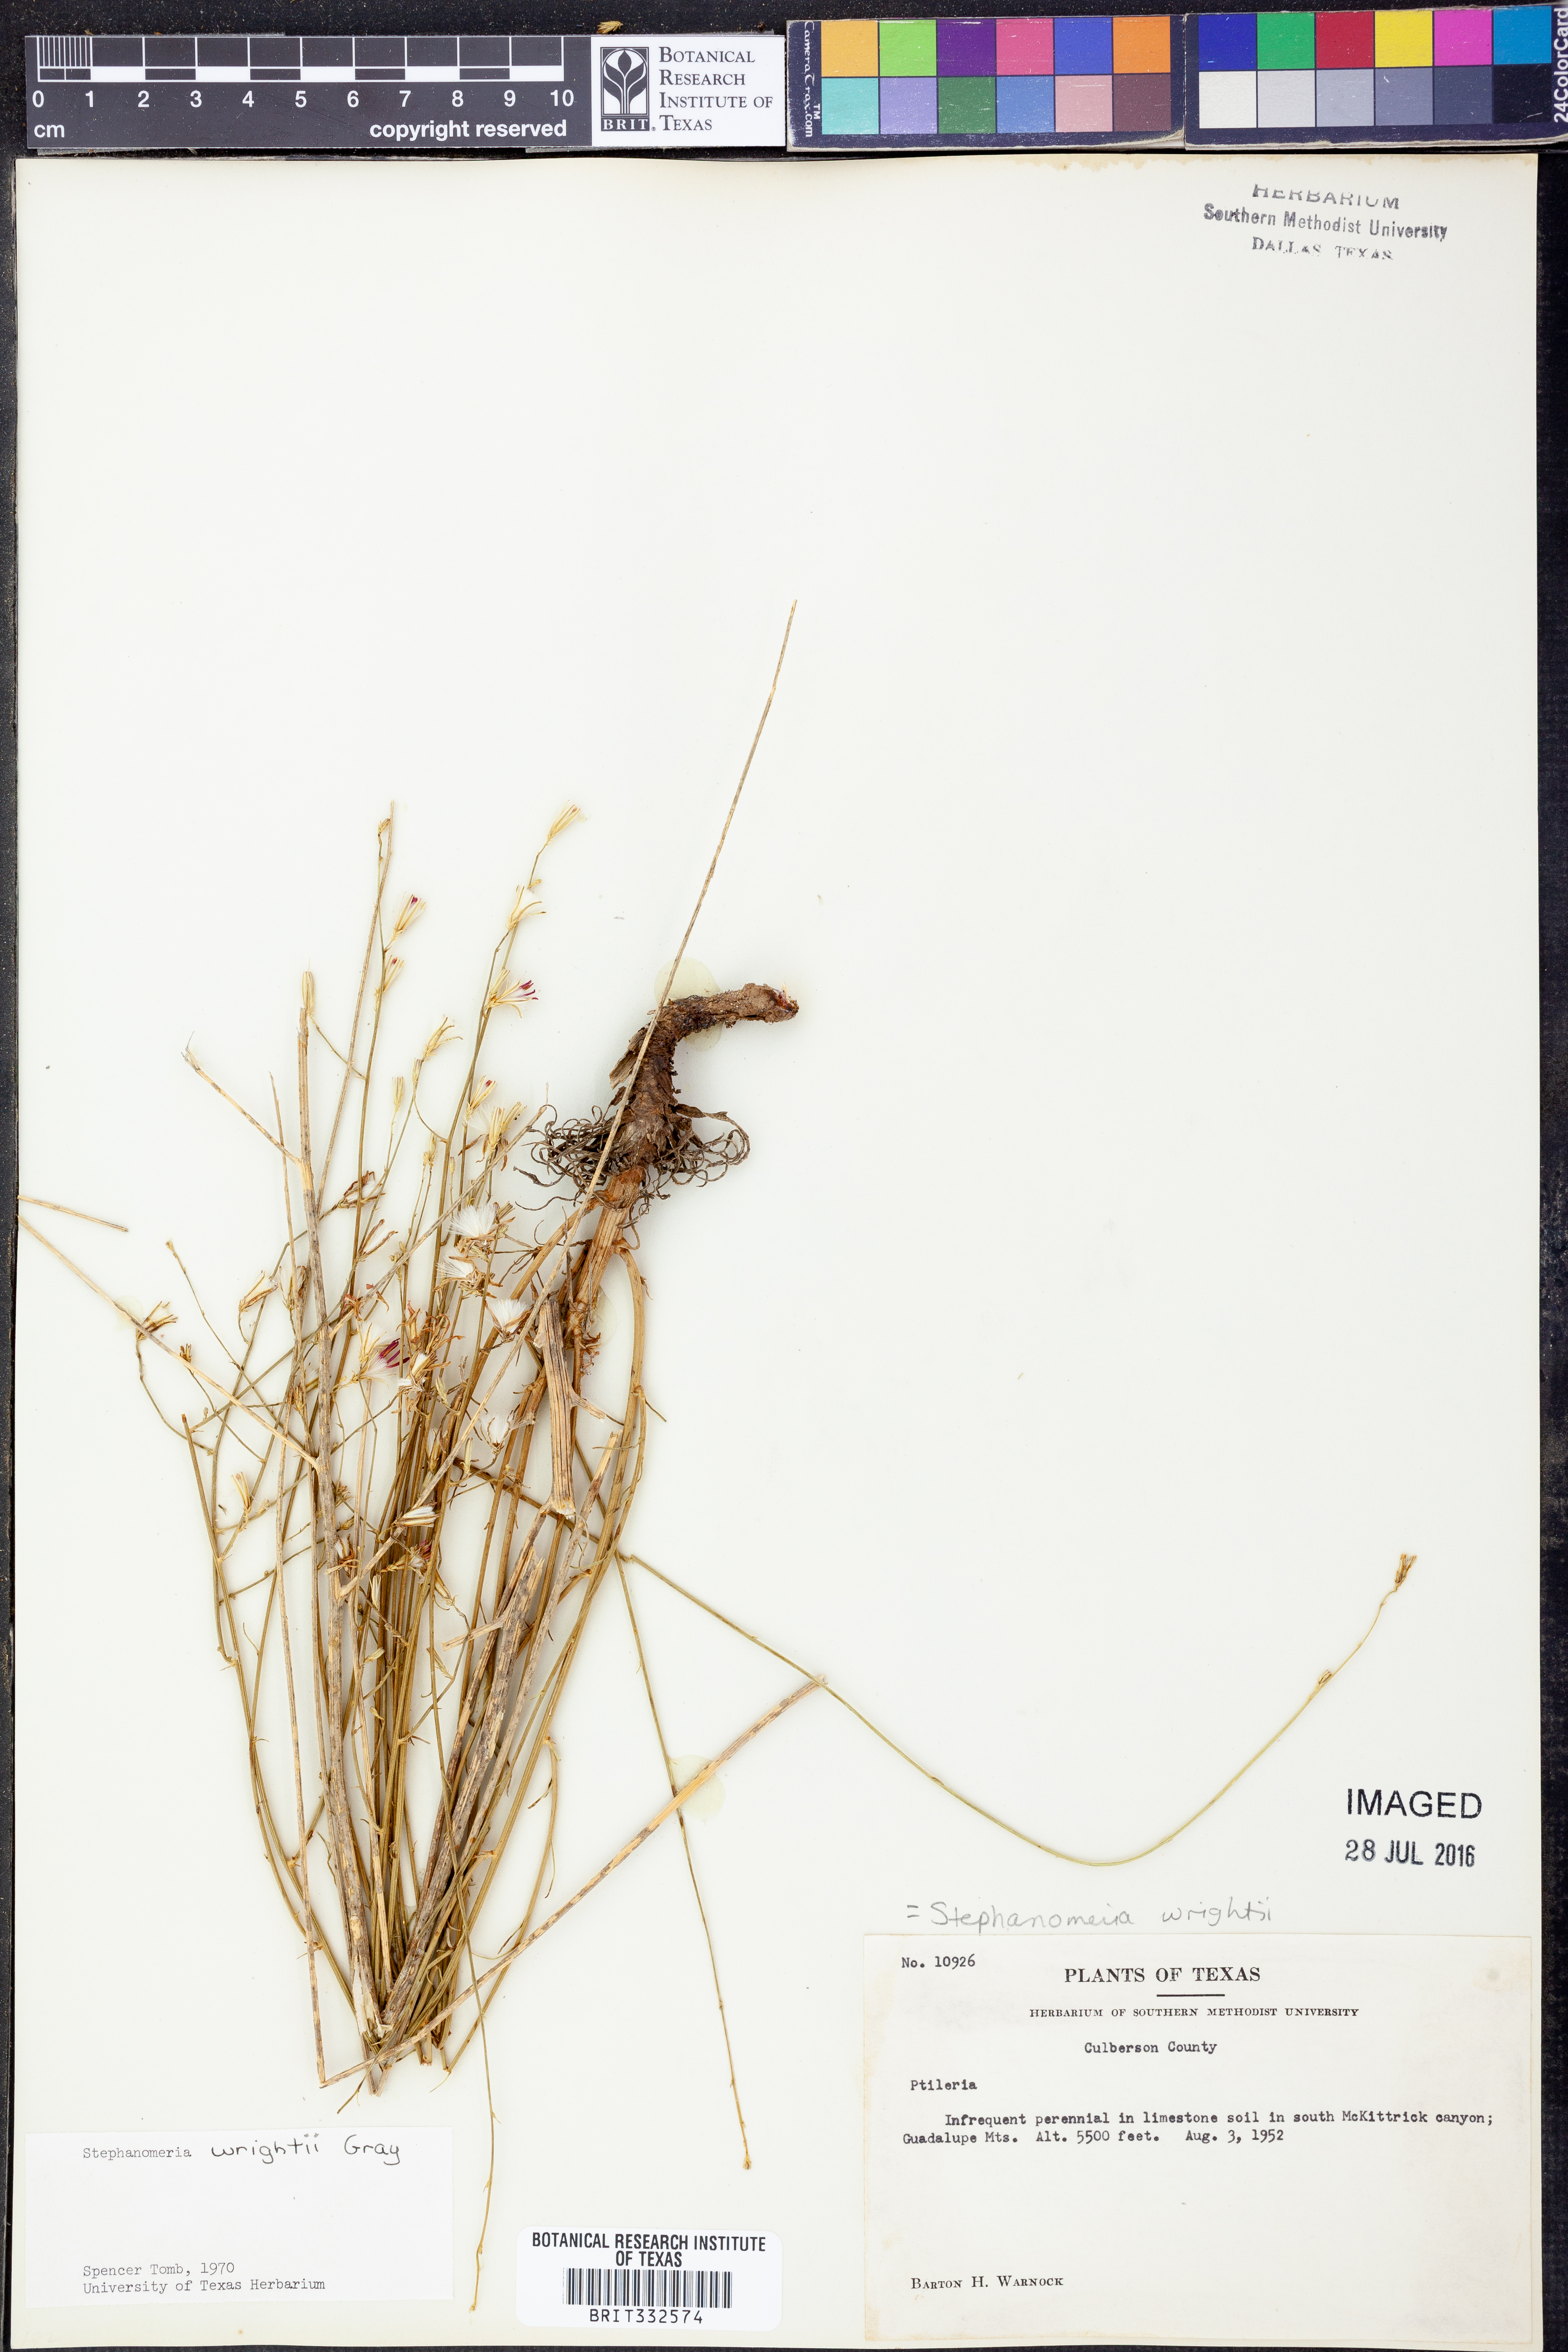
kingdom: Plantae
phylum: Tracheophyta
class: Magnoliopsida
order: Asterales
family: Asteraceae
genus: Stephanomeria
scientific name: Stephanomeria tenuifolia
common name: Slender wirelettuce
